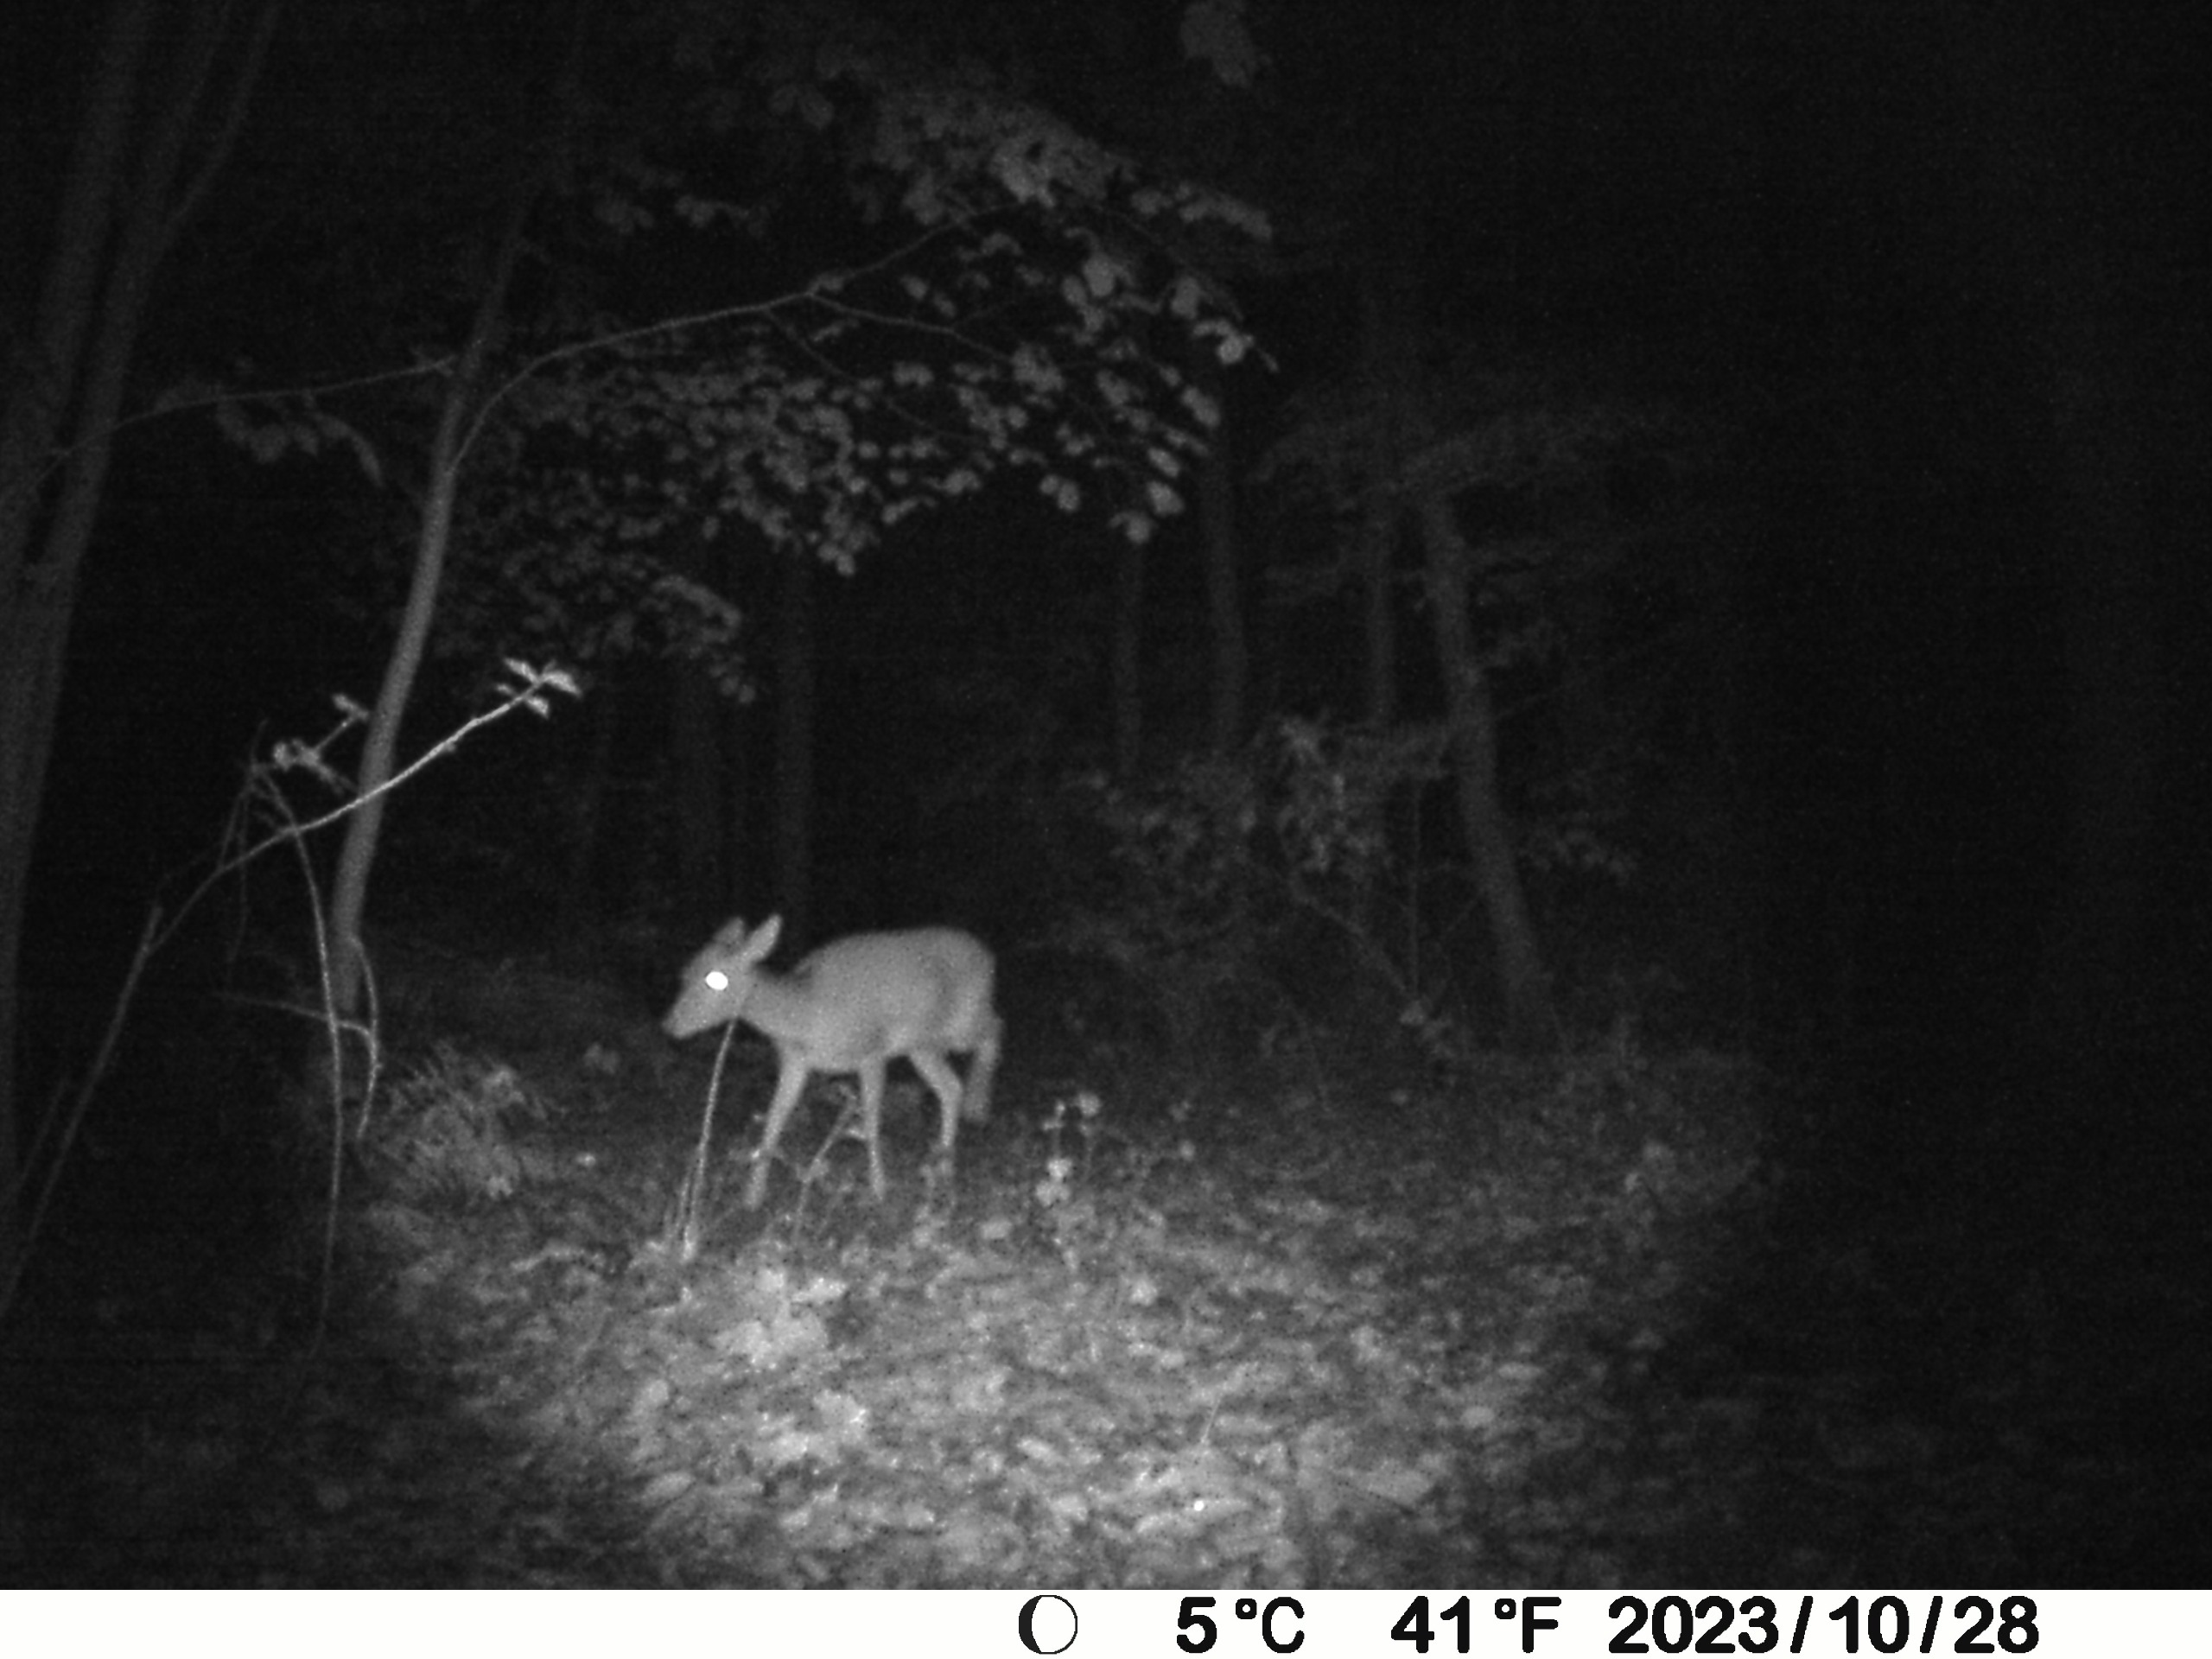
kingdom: Animalia
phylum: Chordata
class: Mammalia
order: Artiodactyla
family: Cervidae
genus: Capreolus
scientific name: Capreolus capreolus
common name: Rådyr
